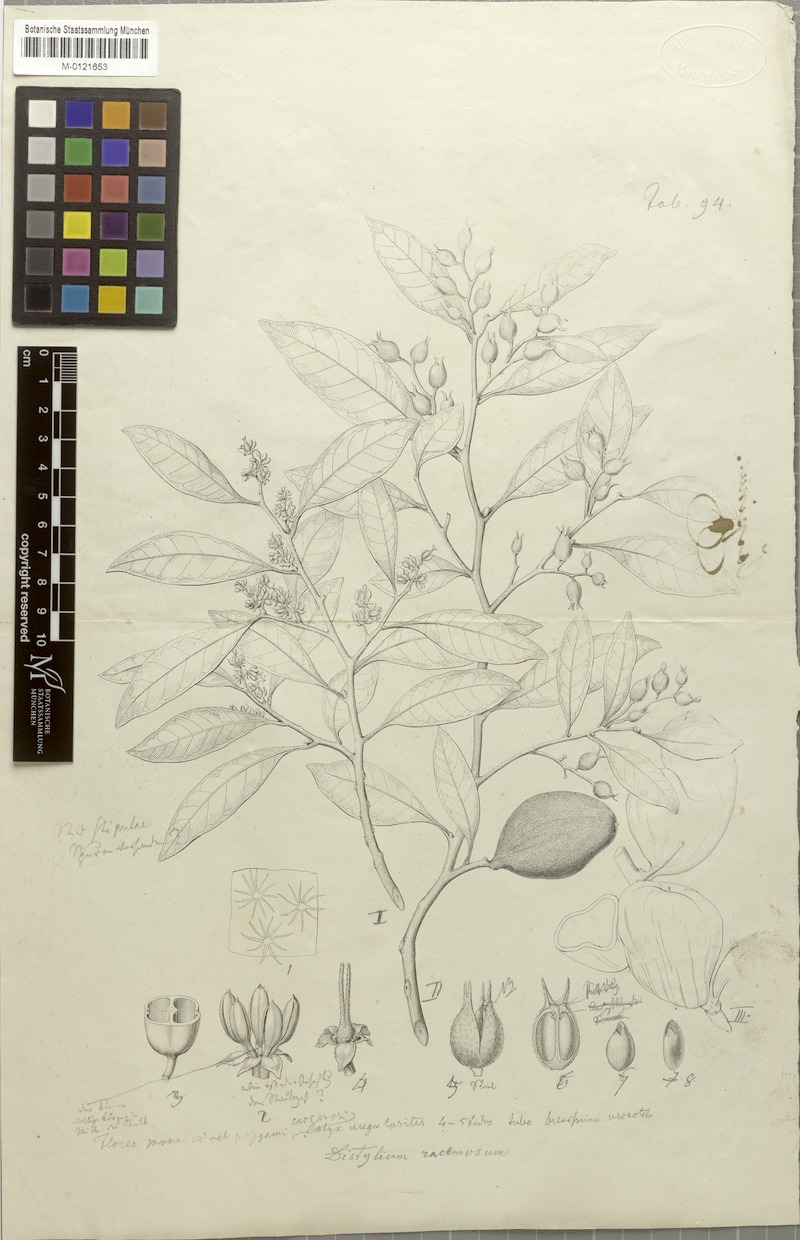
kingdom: Plantae
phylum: Tracheophyta
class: Magnoliopsida
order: Saxifragales
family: Hamamelidaceae
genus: Distylium
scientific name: Distylium racemosum
